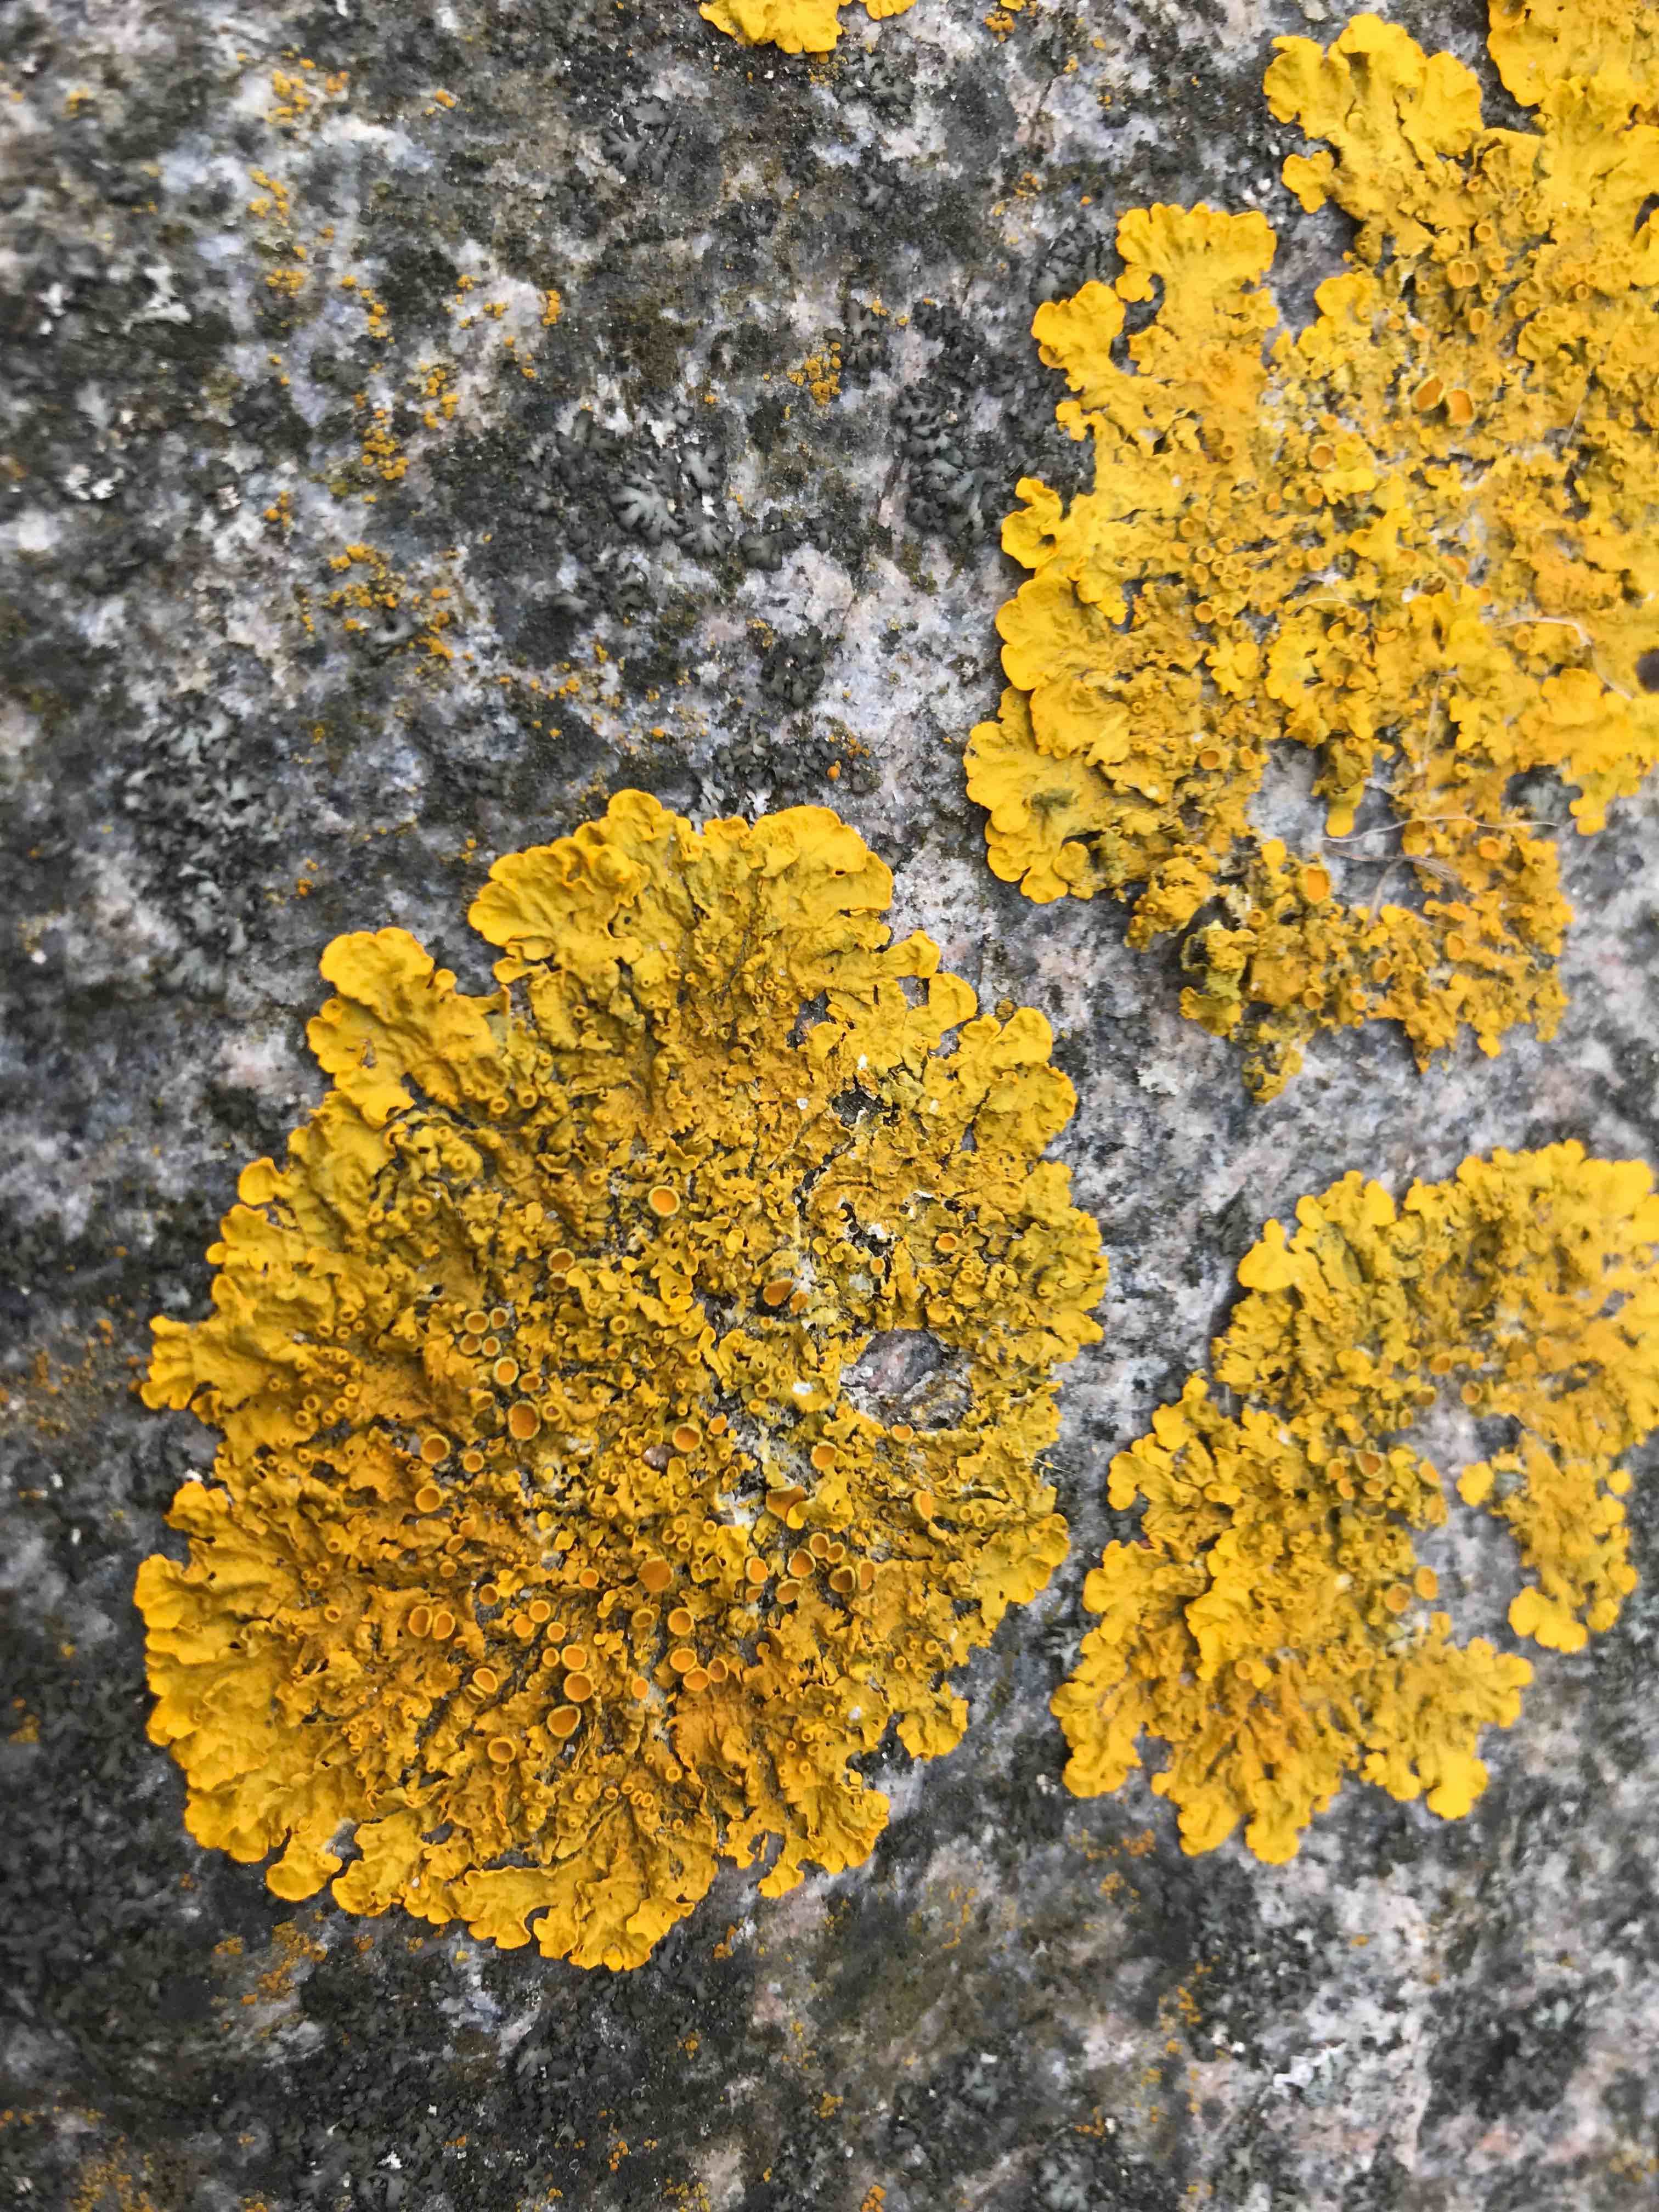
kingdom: Fungi
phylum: Ascomycota
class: Lecanoromycetes
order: Teloschistales
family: Teloschistaceae
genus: Xanthoria
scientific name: Xanthoria parietina
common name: almindelig væggelav
